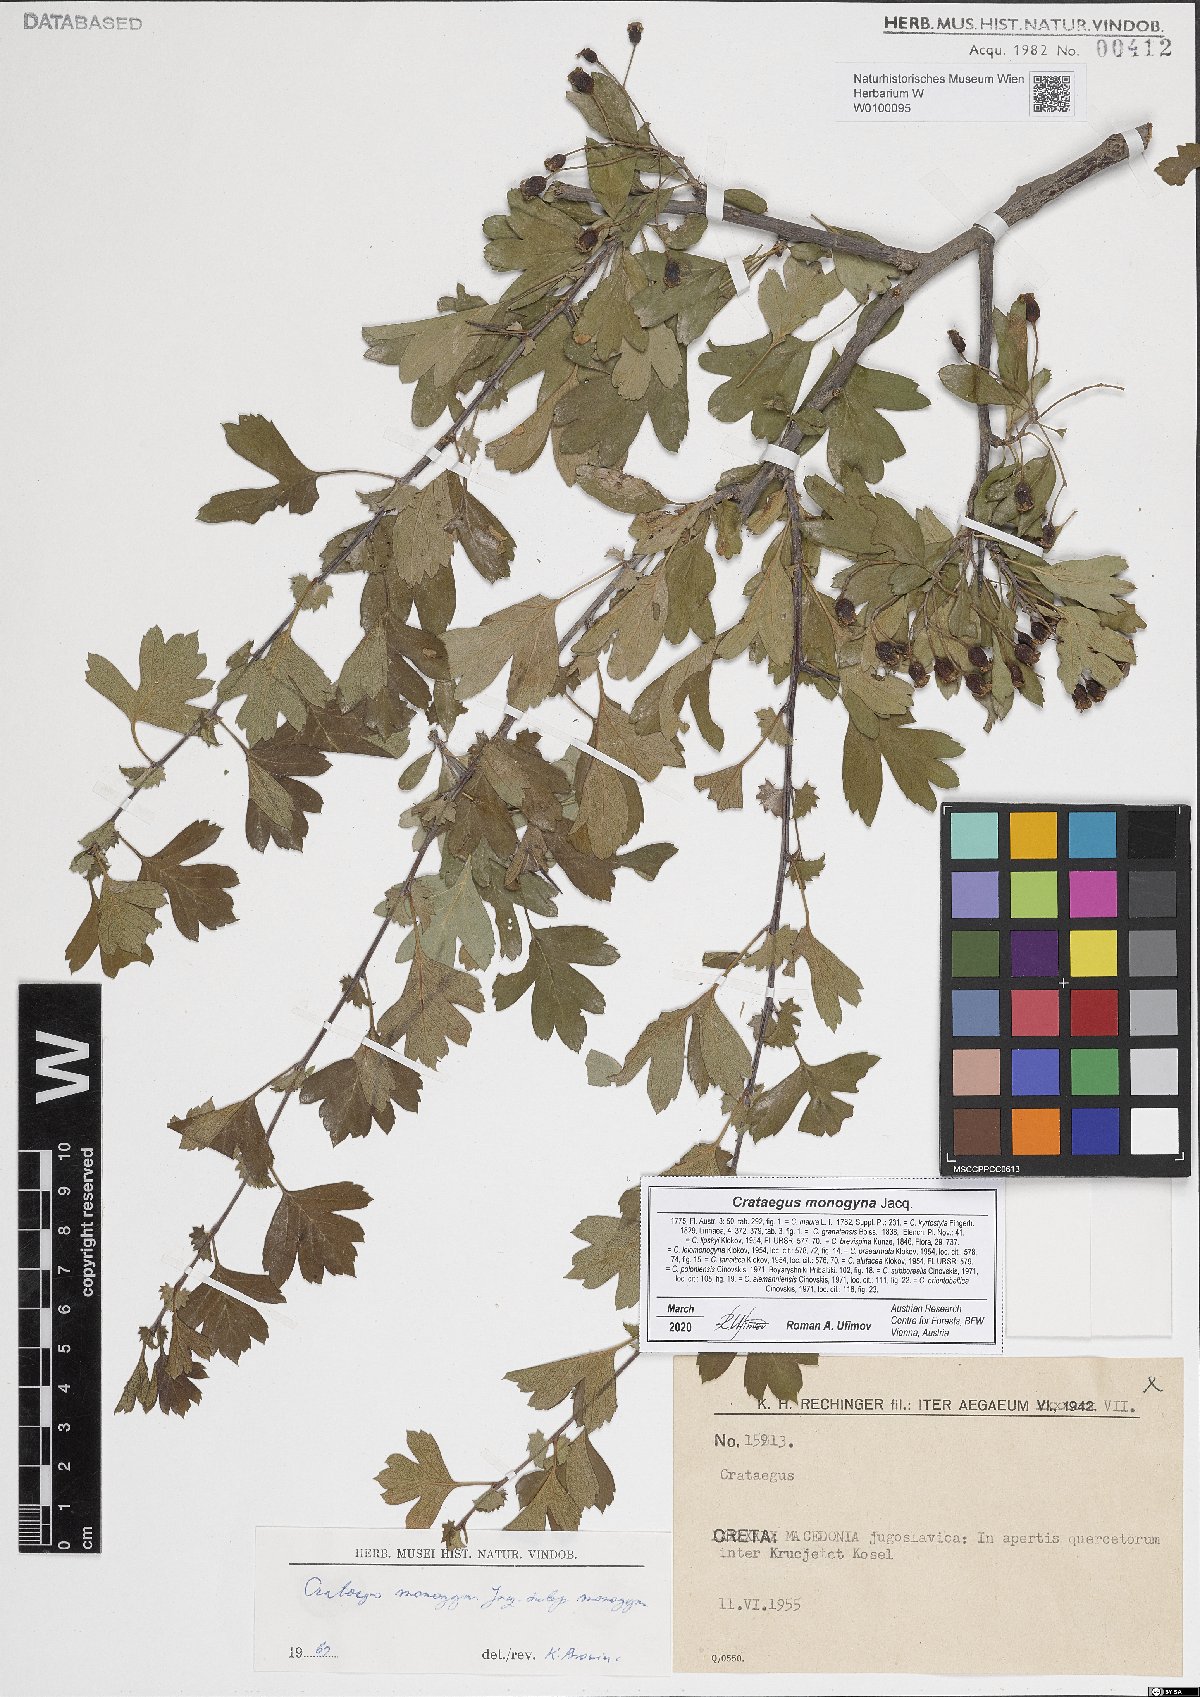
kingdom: Plantae
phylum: Tracheophyta
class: Magnoliopsida
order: Rosales
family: Rosaceae
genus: Crataegus
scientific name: Crataegus monogyna
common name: Hawthorn
